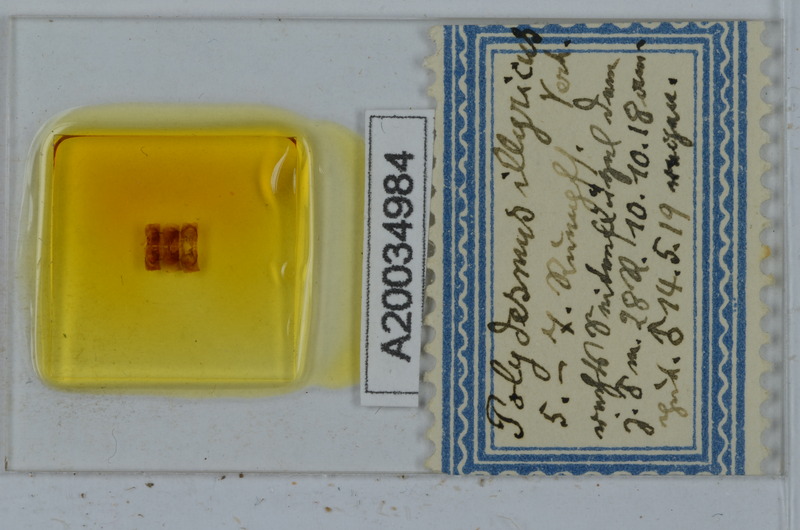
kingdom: Animalia
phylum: Arthropoda
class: Diplopoda
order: Polydesmida
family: Polydesmidae
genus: Polydesmus
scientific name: Polydesmus complanatus
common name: Flat-backed millipede
